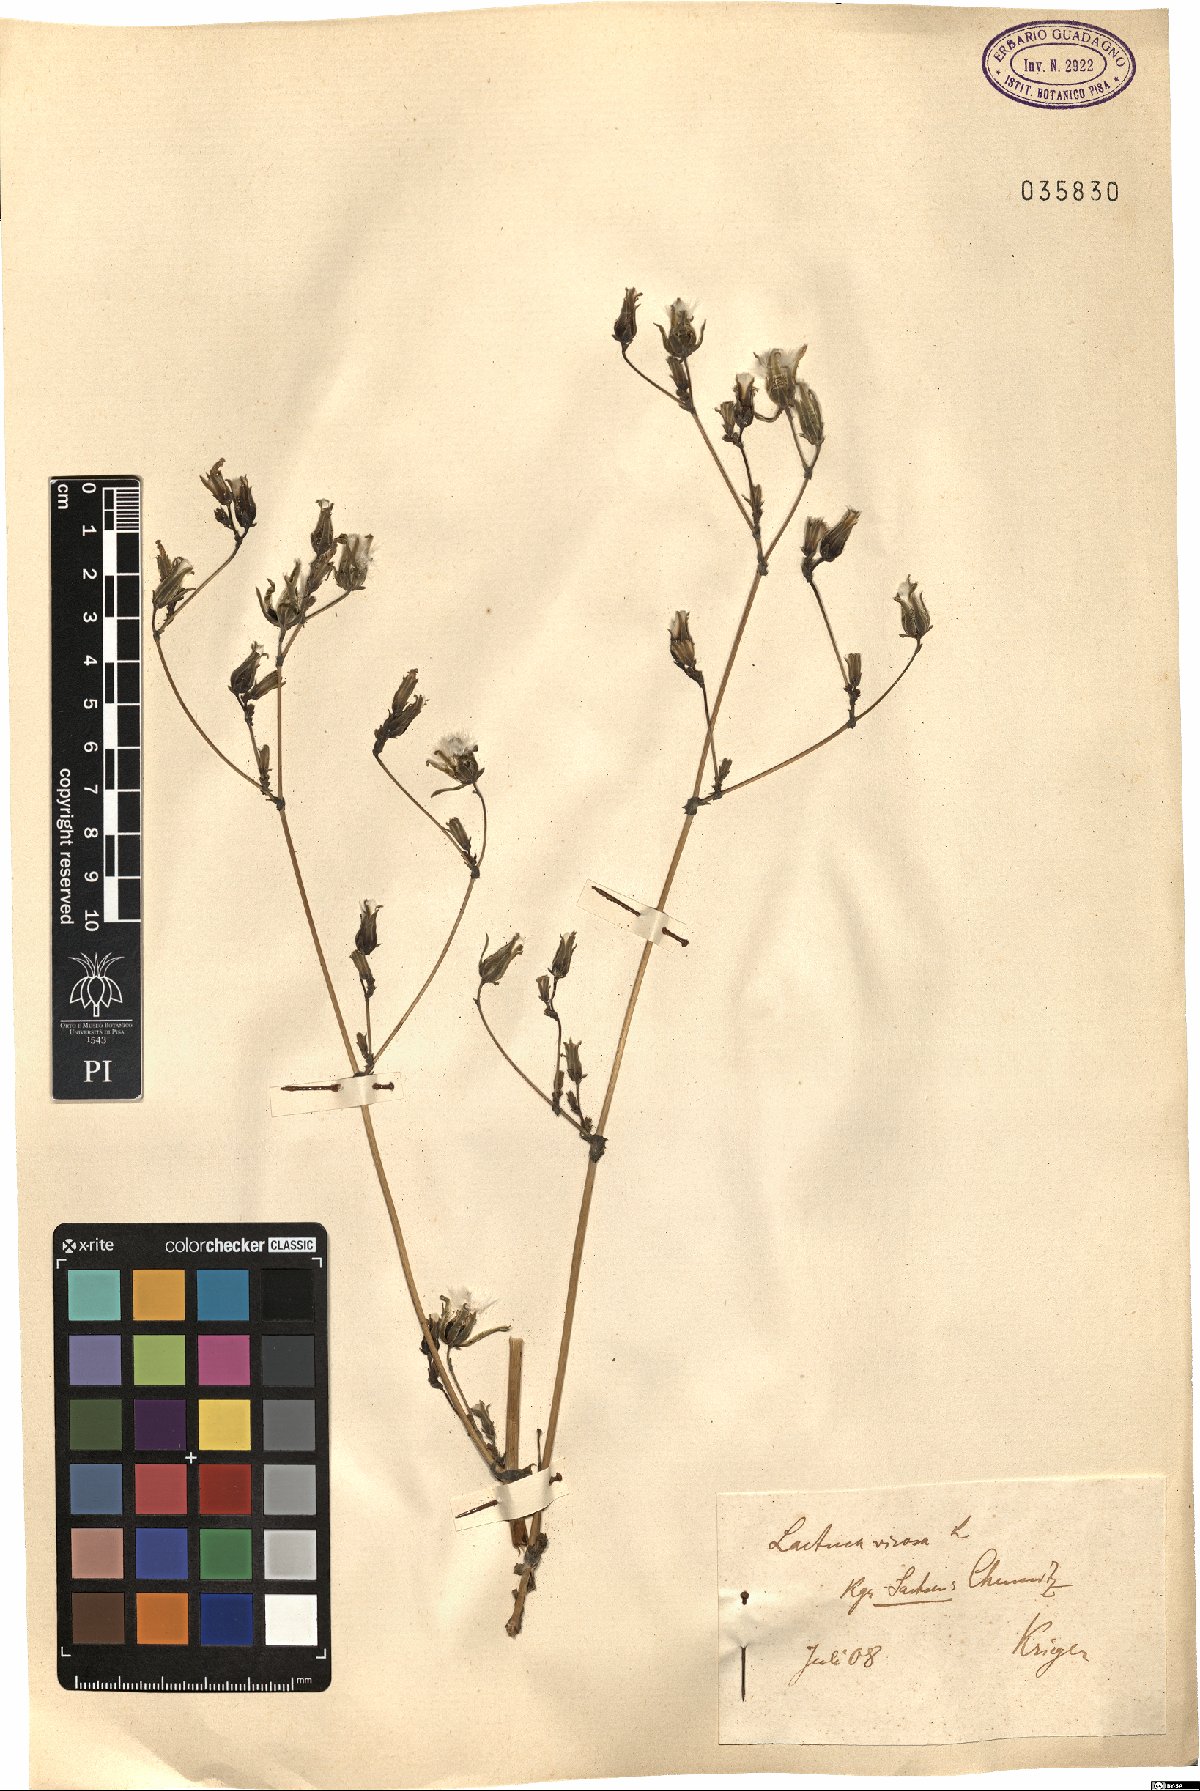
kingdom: Plantae
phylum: Tracheophyta
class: Magnoliopsida
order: Asterales
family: Asteraceae
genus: Lactuca
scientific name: Lactuca virosa
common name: Great lettuce
